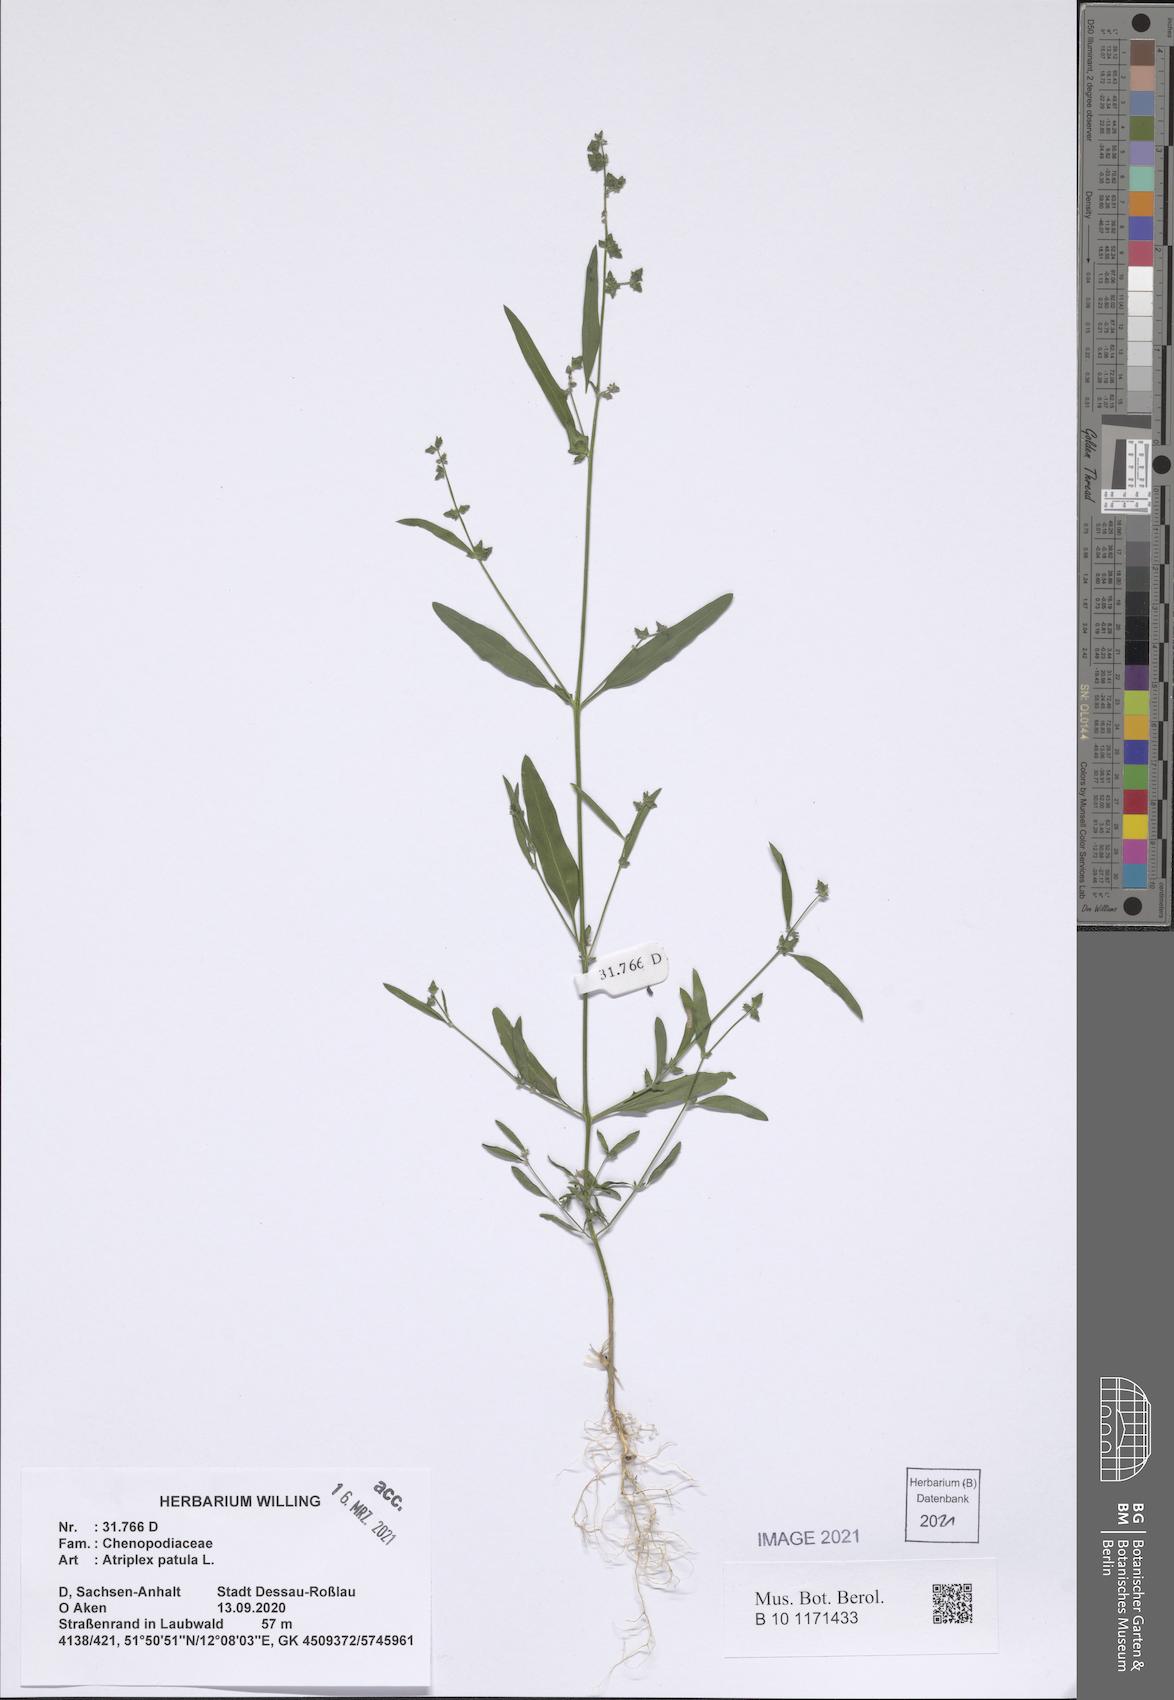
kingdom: Plantae
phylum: Tracheophyta
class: Magnoliopsida
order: Caryophyllales
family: Amaranthaceae
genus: Atriplex
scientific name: Atriplex patula
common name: Common orache
